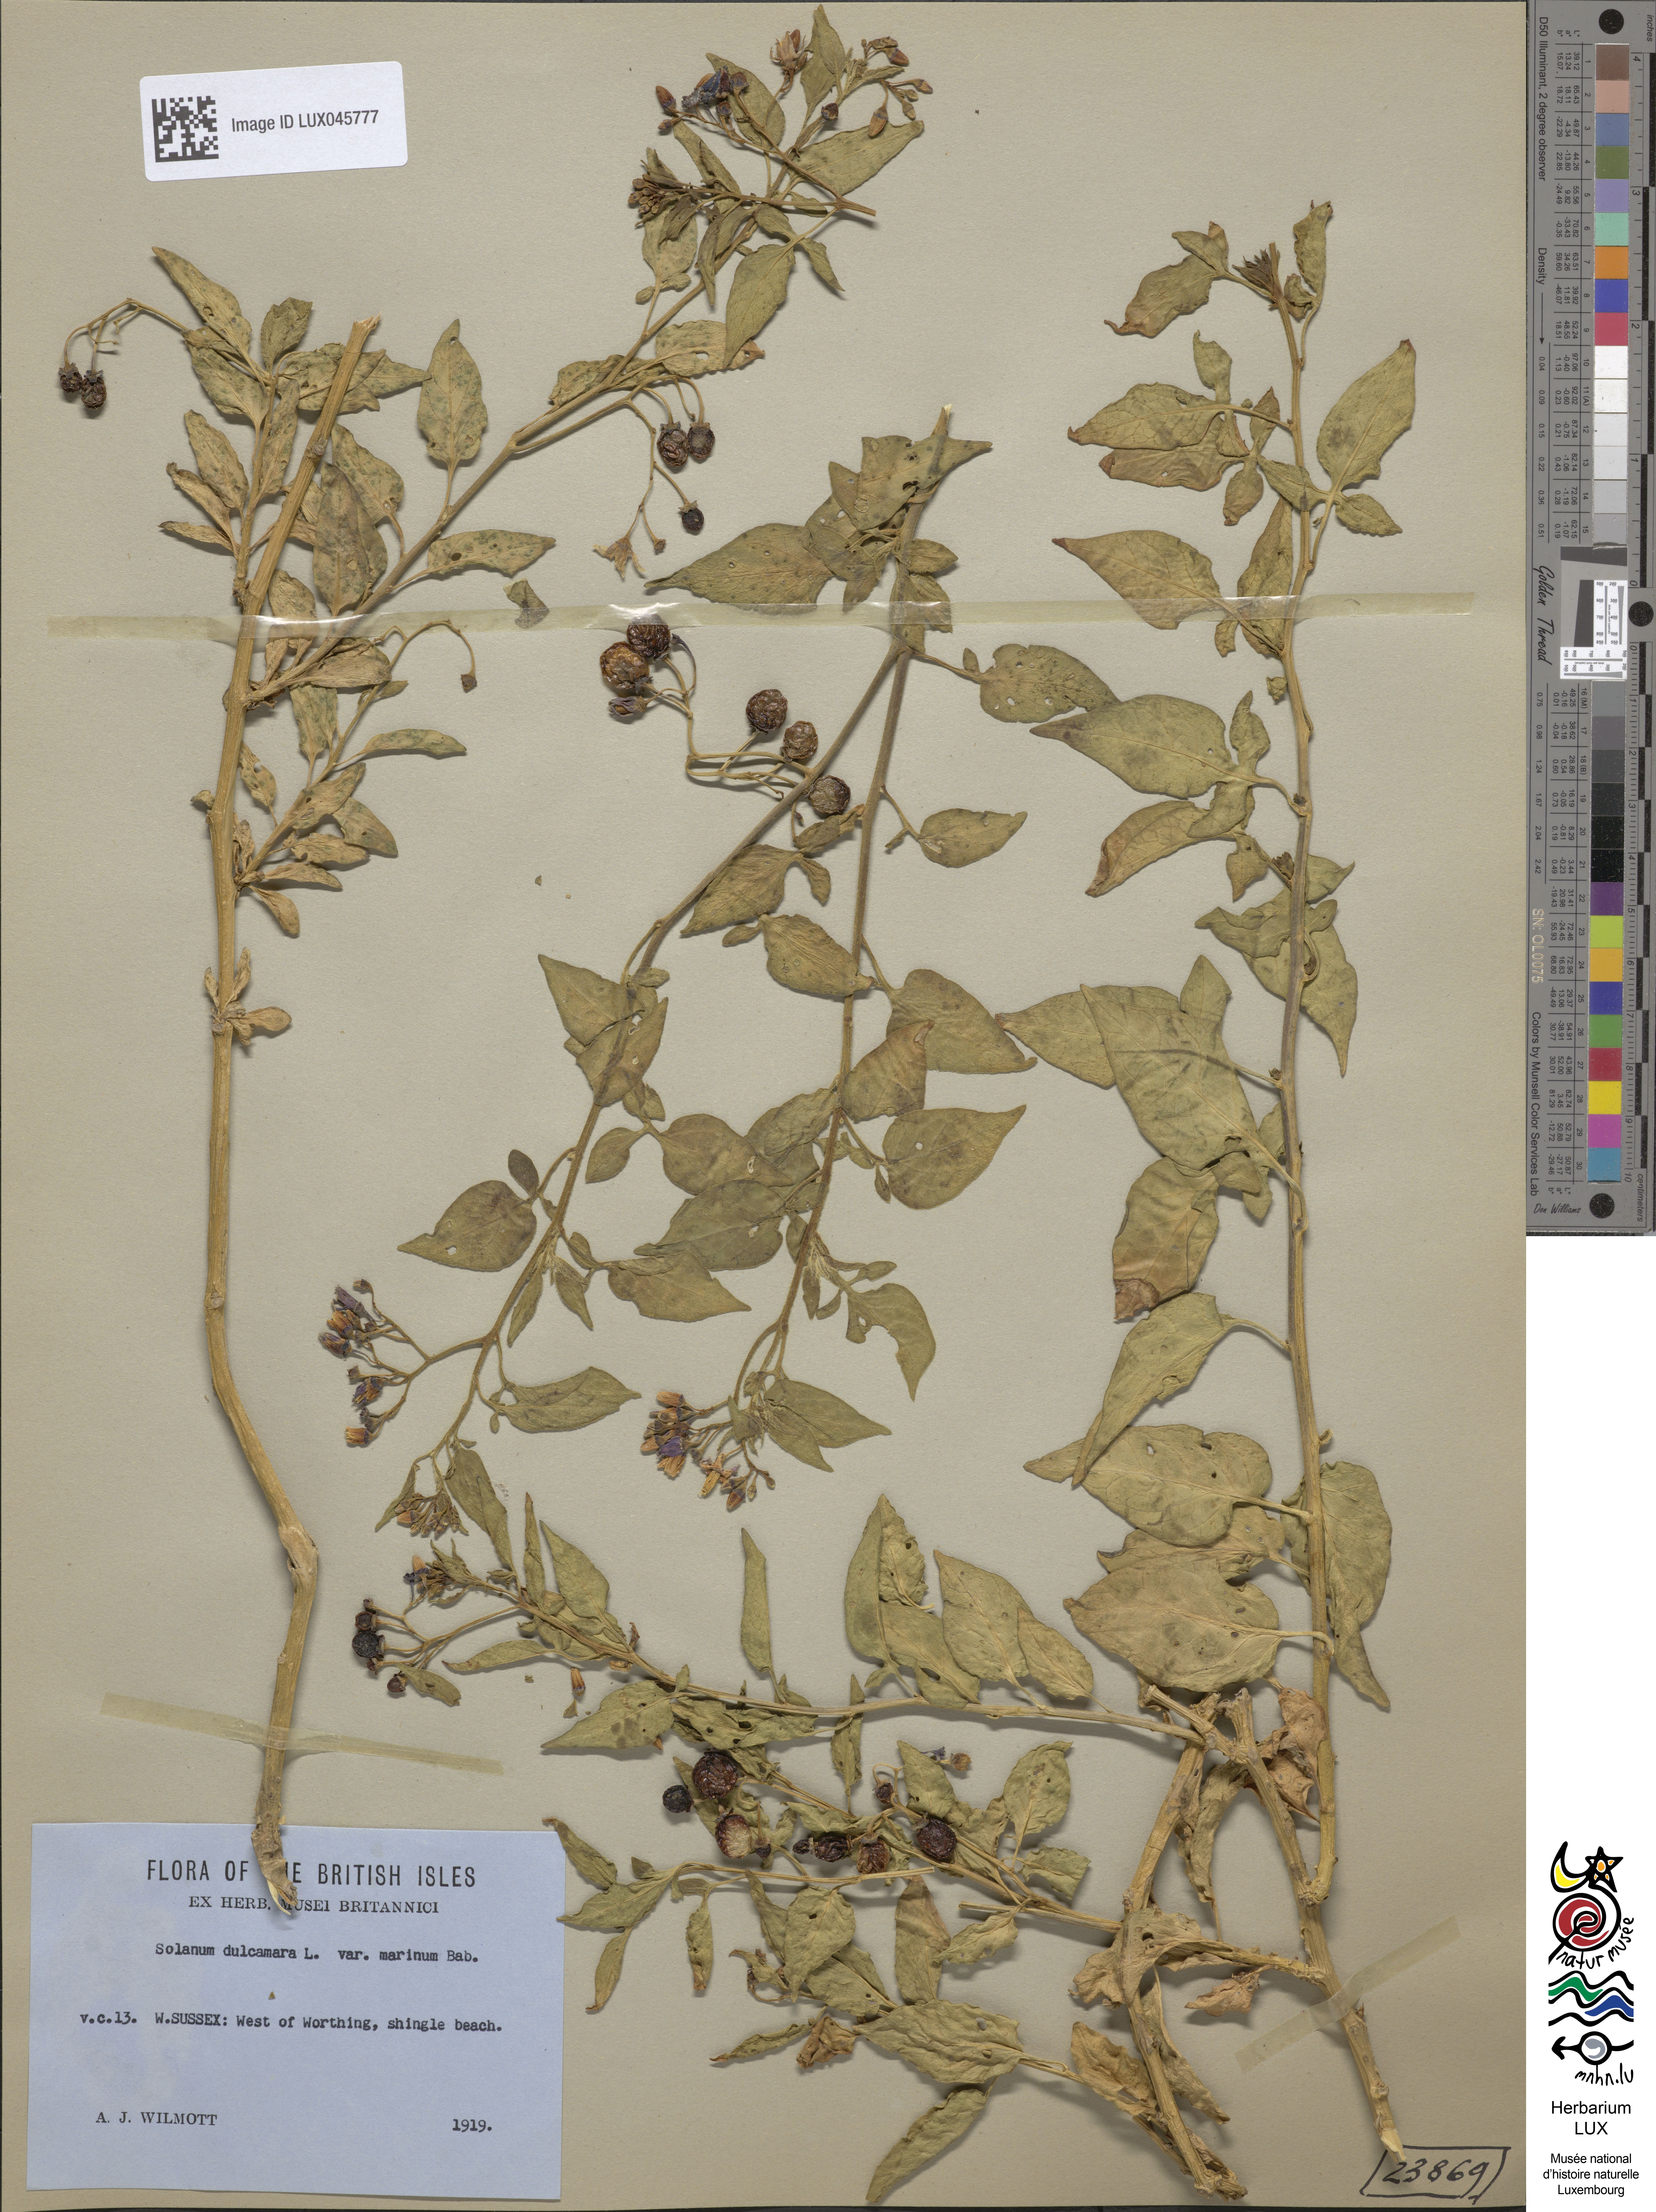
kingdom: Plantae
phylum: Tracheophyta
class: Magnoliopsida
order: Solanales
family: Solanaceae
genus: Solanum
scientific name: Solanum dulcamara
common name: Climbing nightshade
